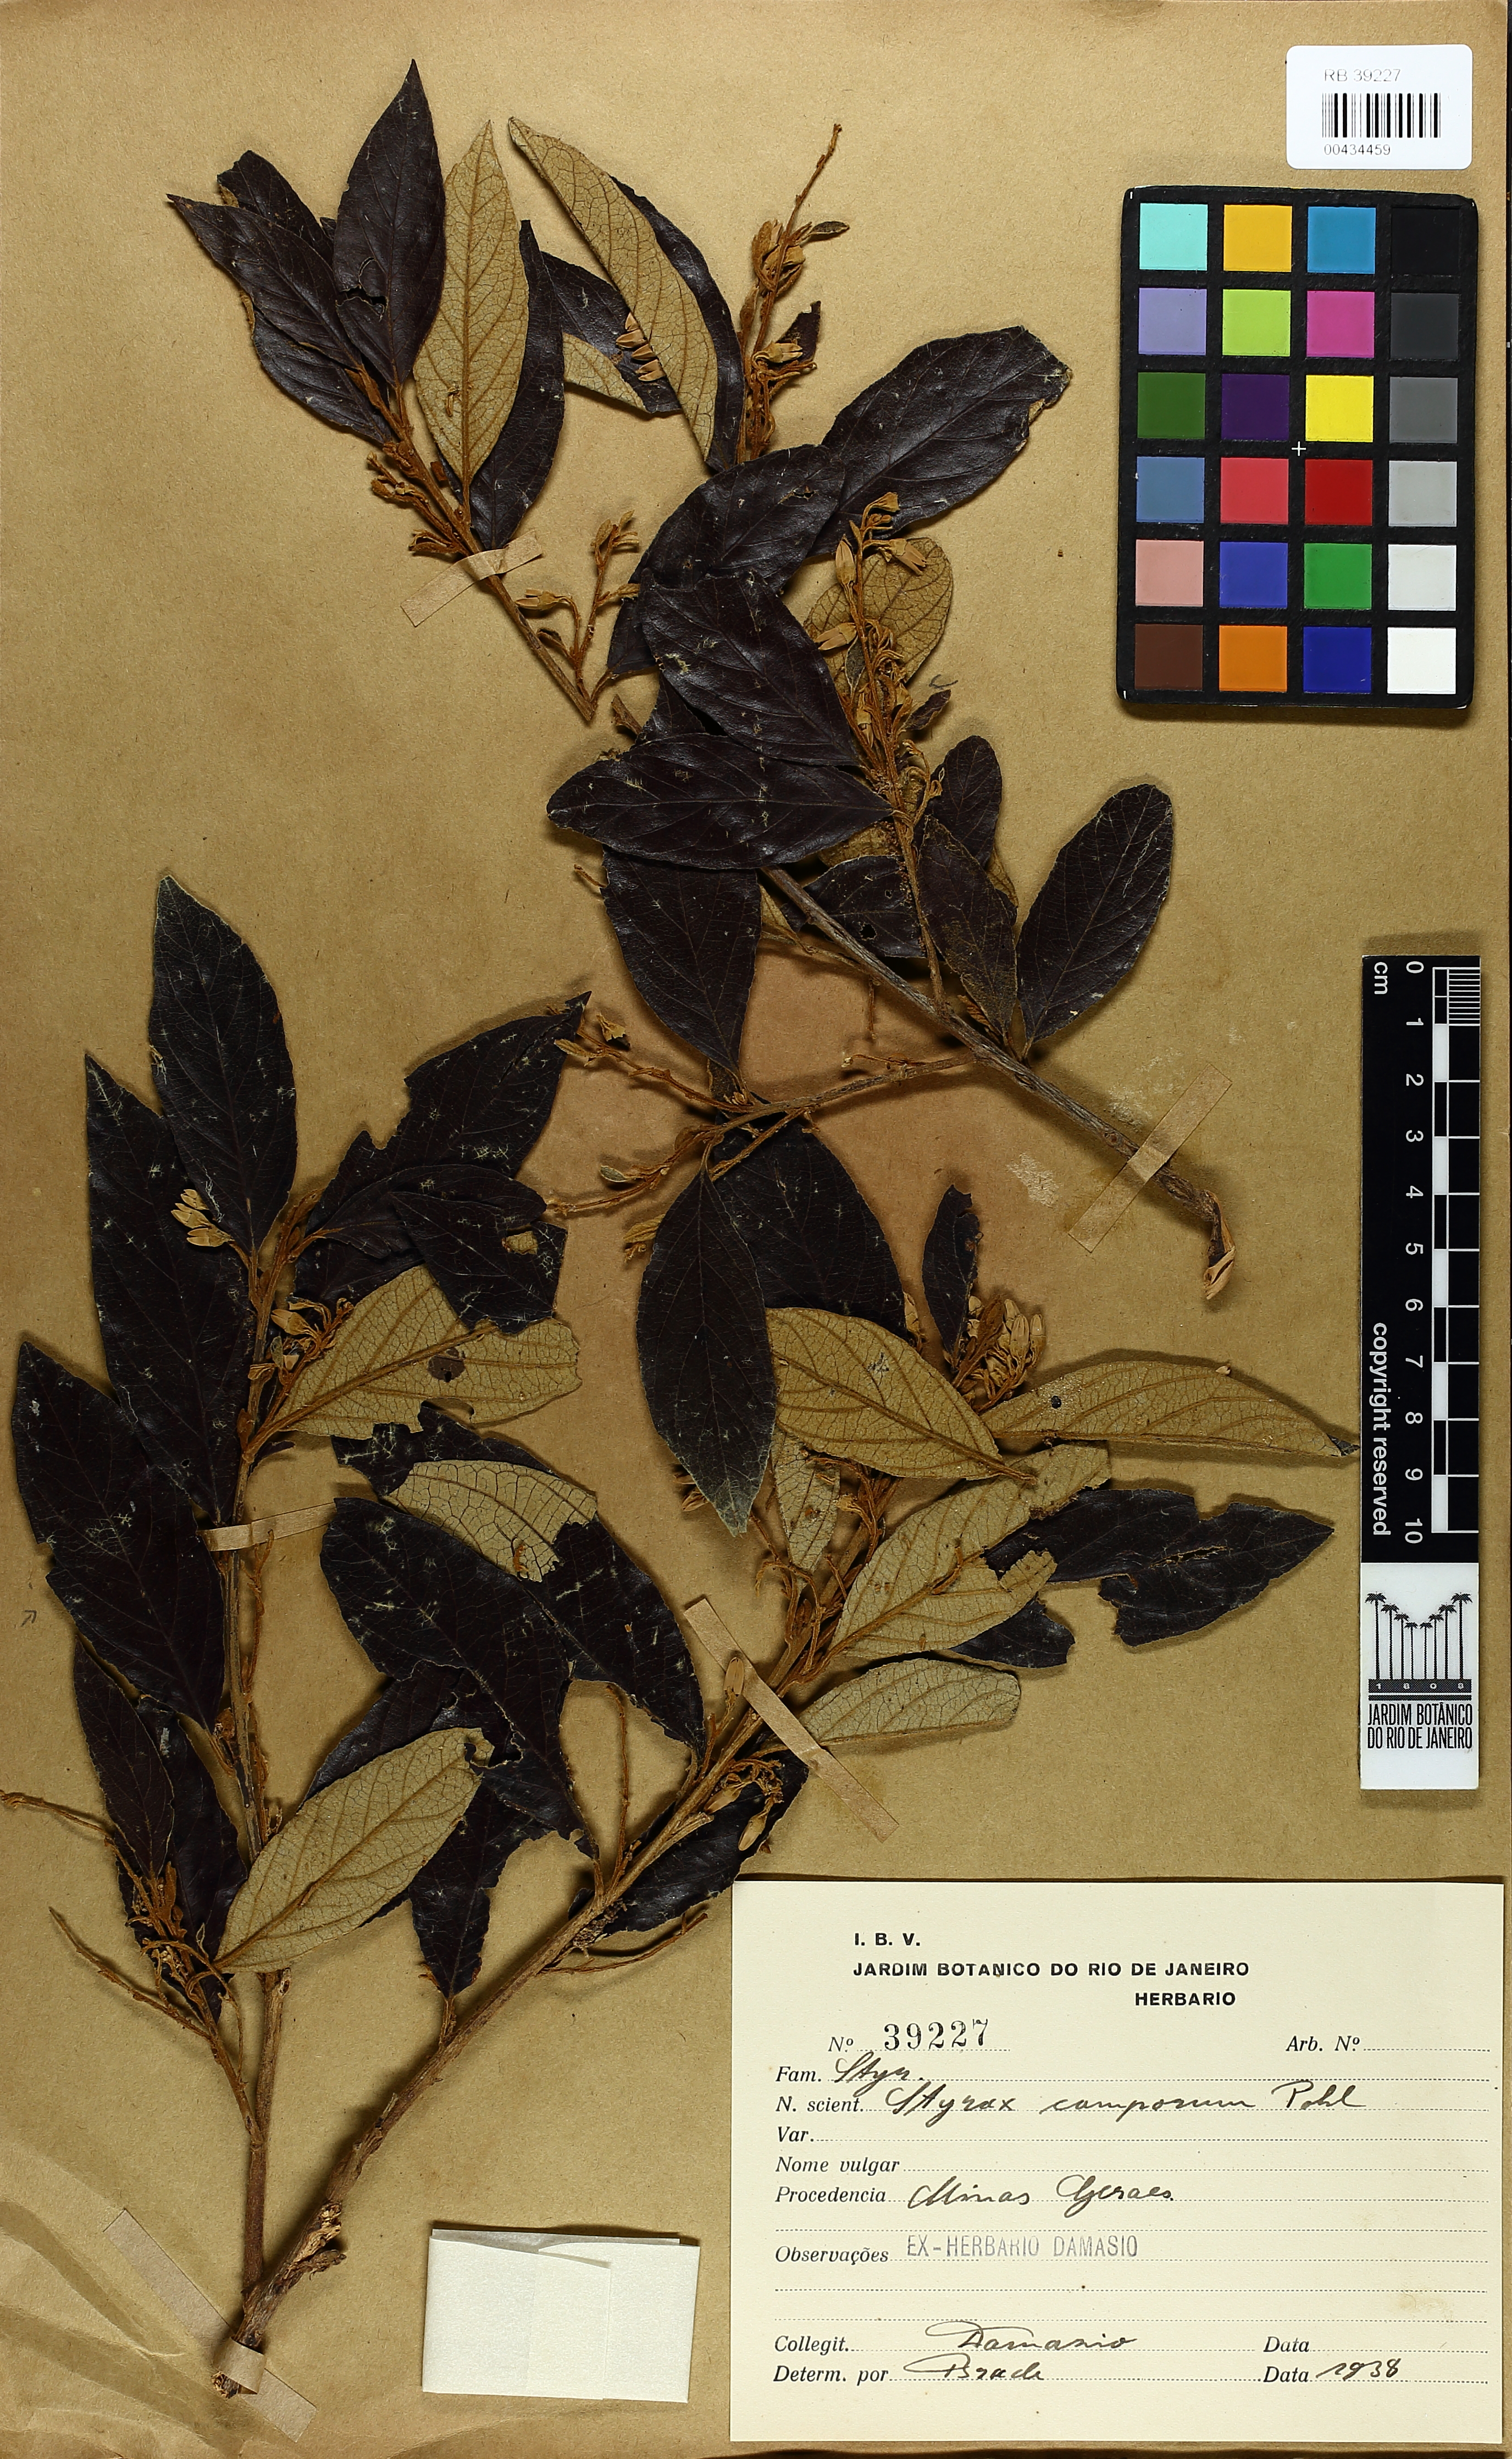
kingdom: Plantae
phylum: Tracheophyta
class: Magnoliopsida
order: Ericales
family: Styracaceae
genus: Styrax
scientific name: Styrax camporum
